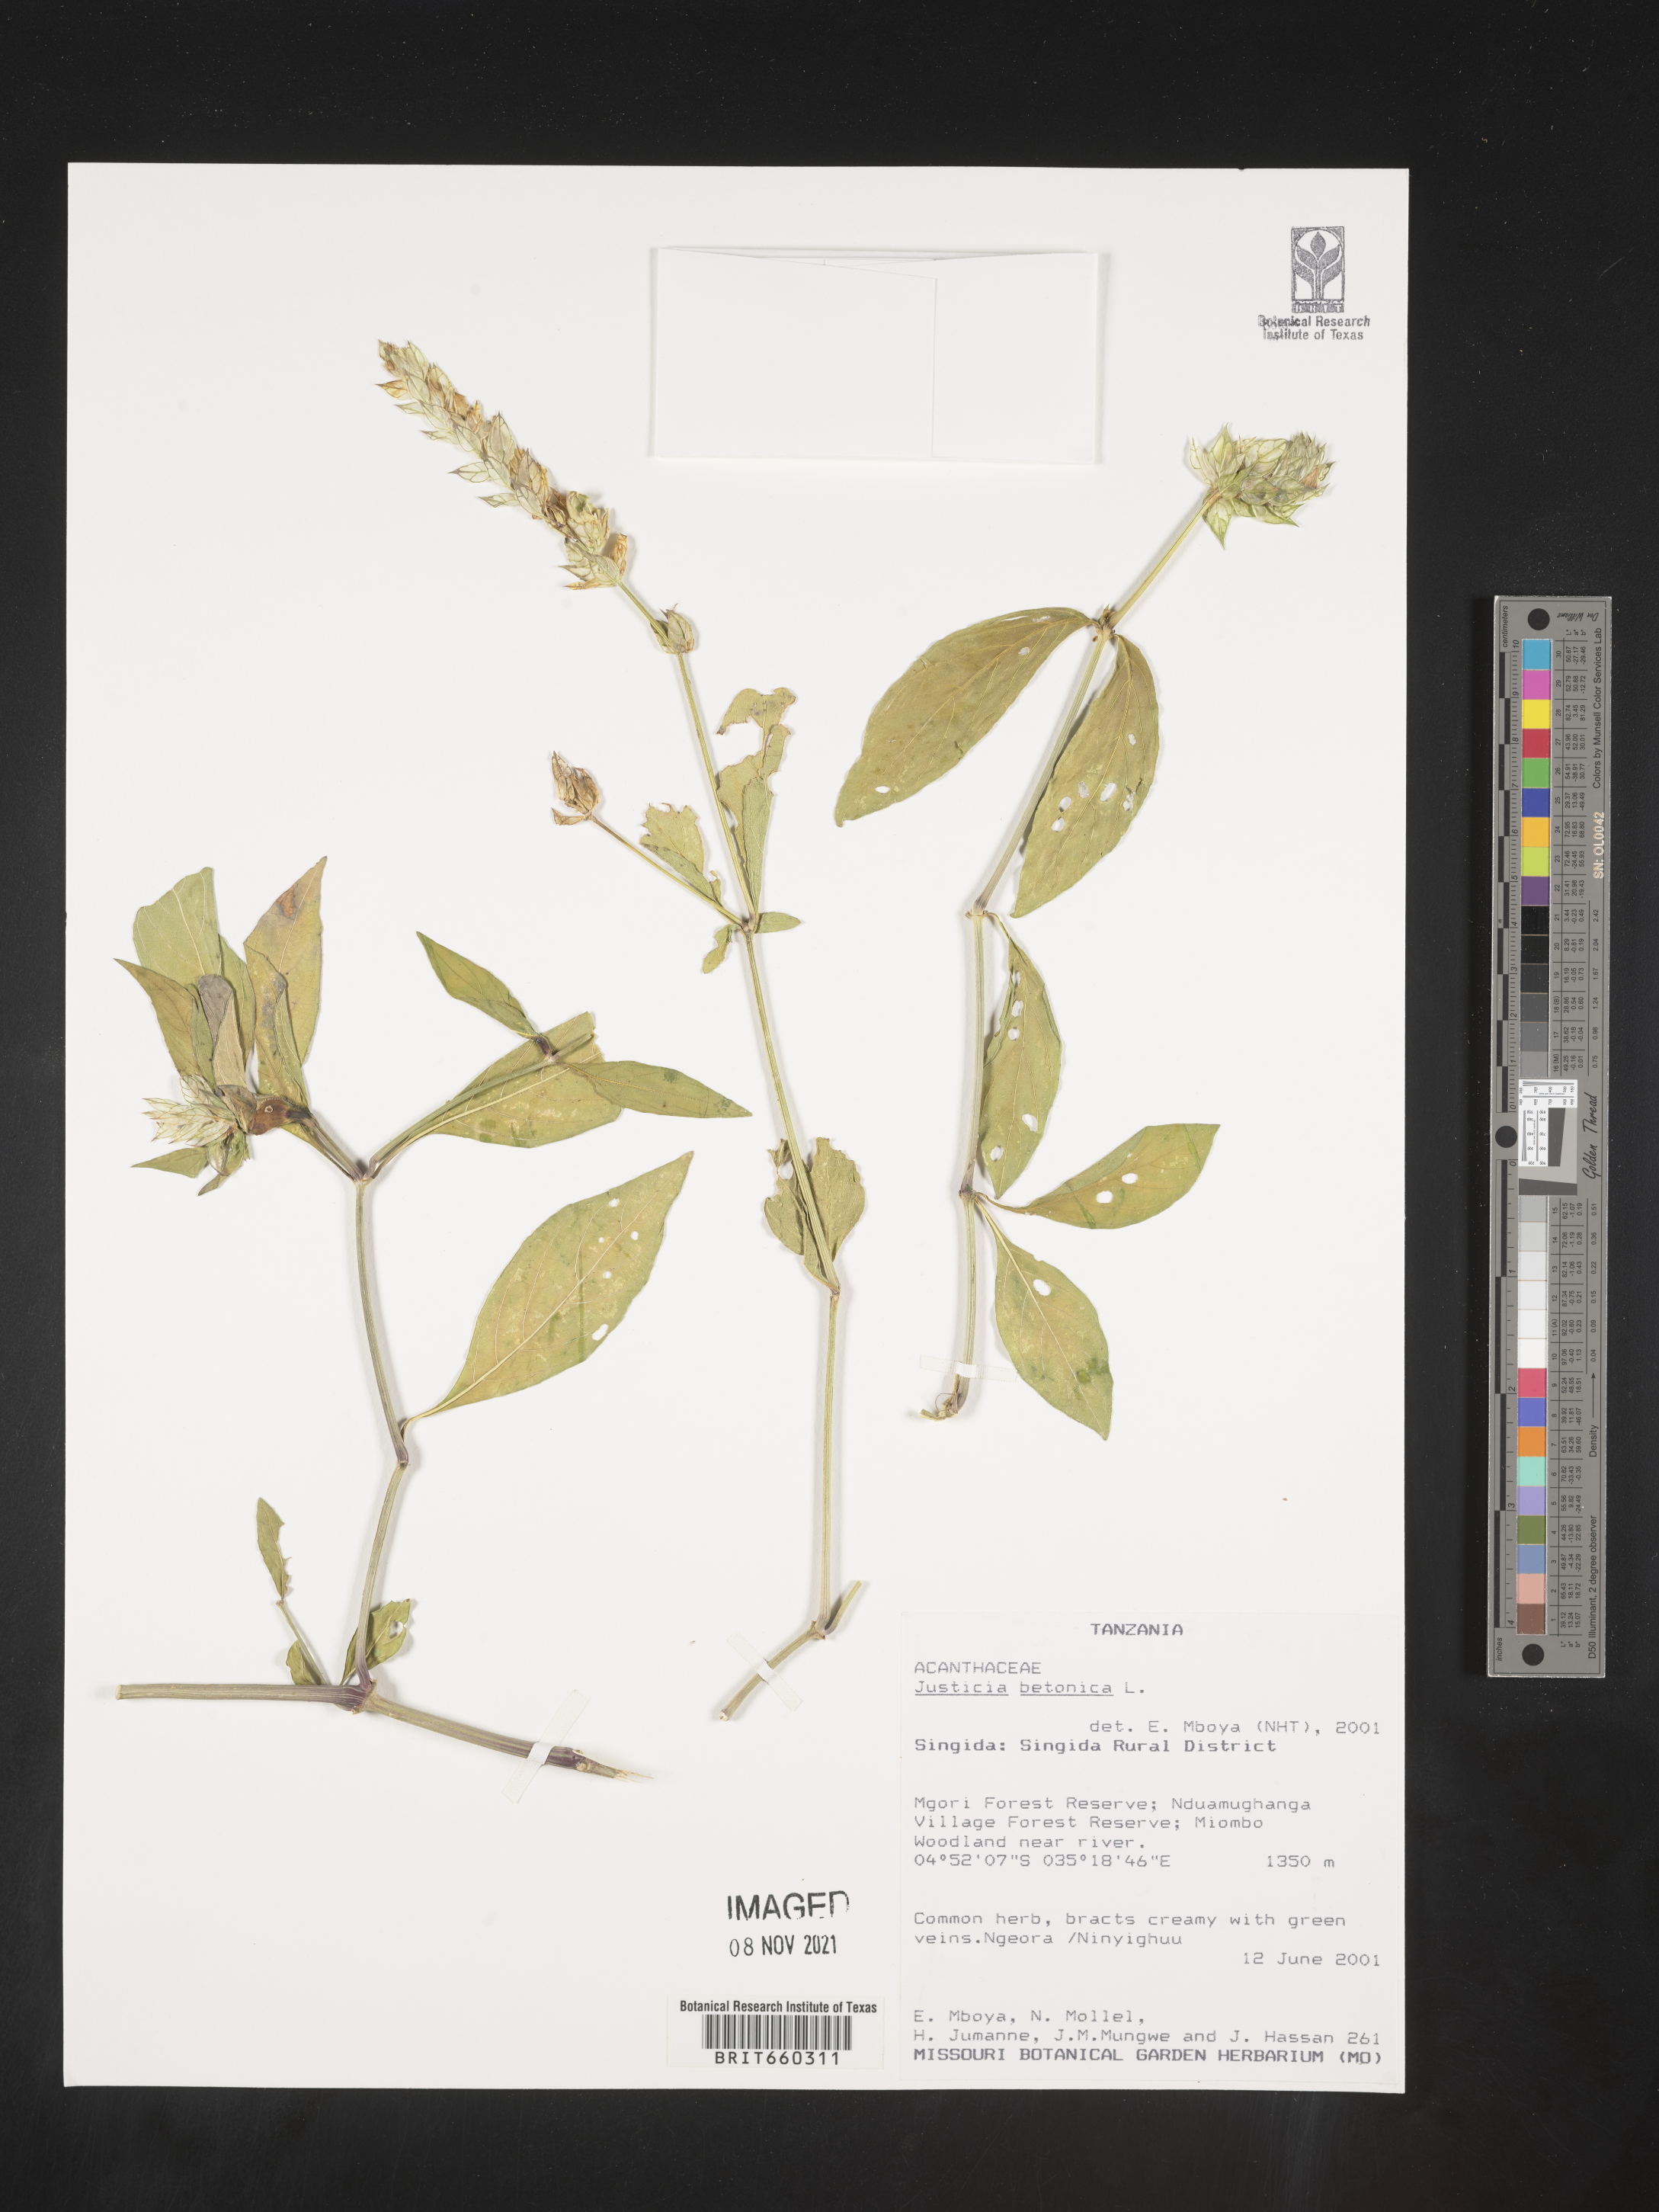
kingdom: Plantae
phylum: Tracheophyta
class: Magnoliopsida
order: Lamiales
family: Acanthaceae
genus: Justicia
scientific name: Justicia
